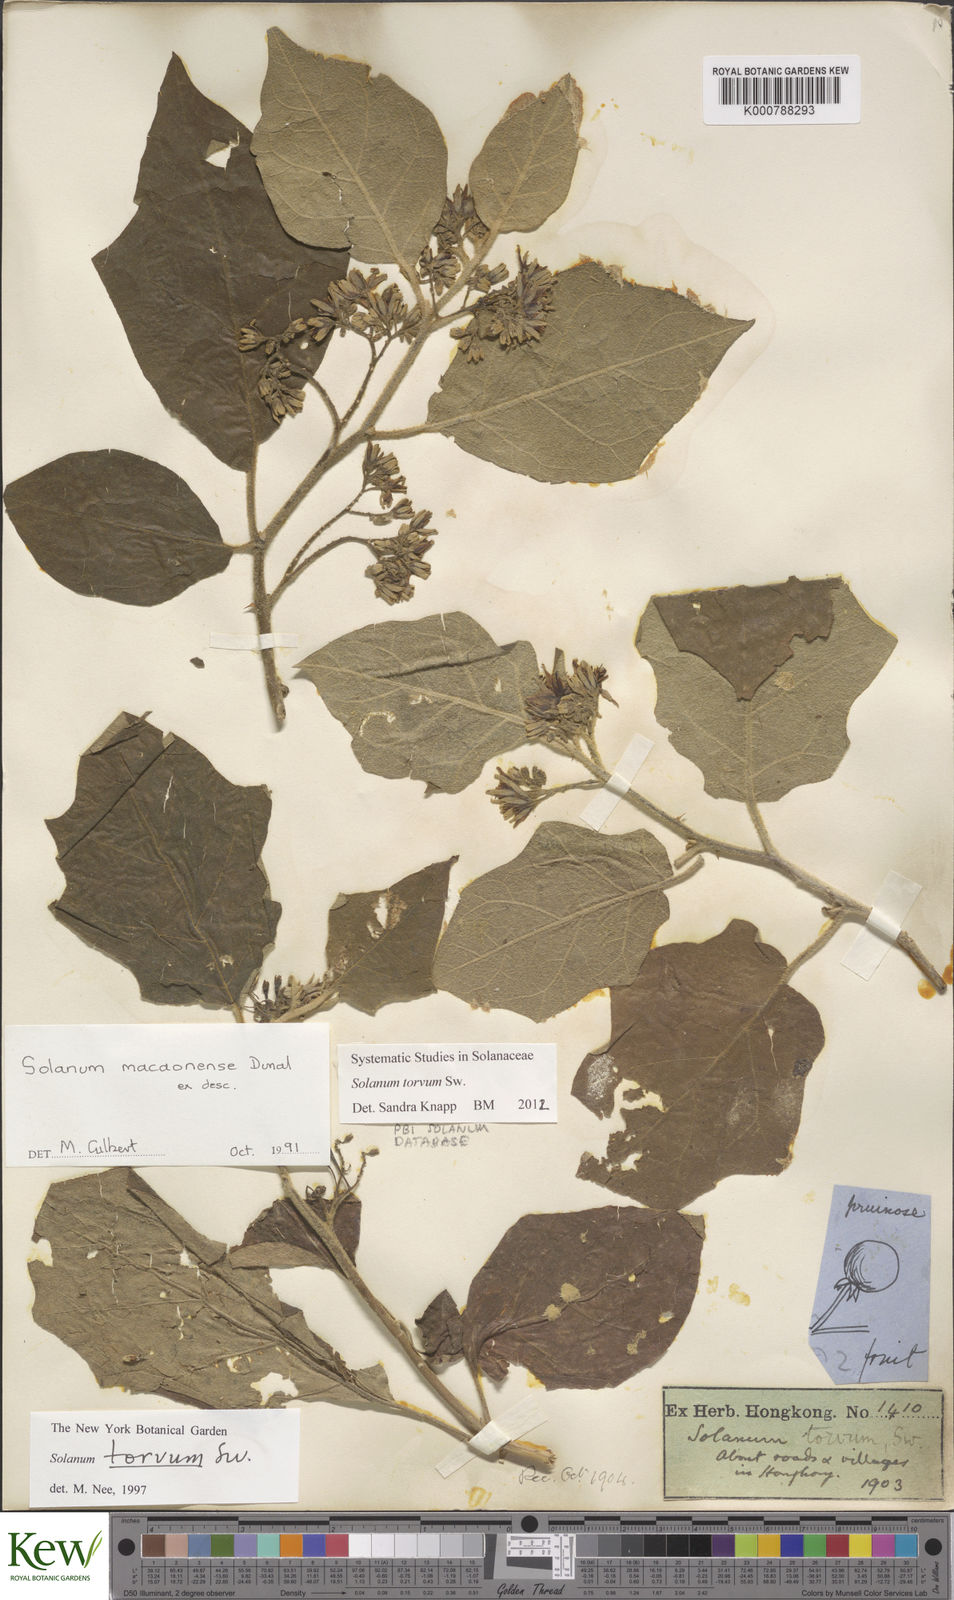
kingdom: Plantae
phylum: Tracheophyta
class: Magnoliopsida
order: Solanales
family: Solanaceae
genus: Solanum
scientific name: Solanum torvum
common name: Turkey berry
